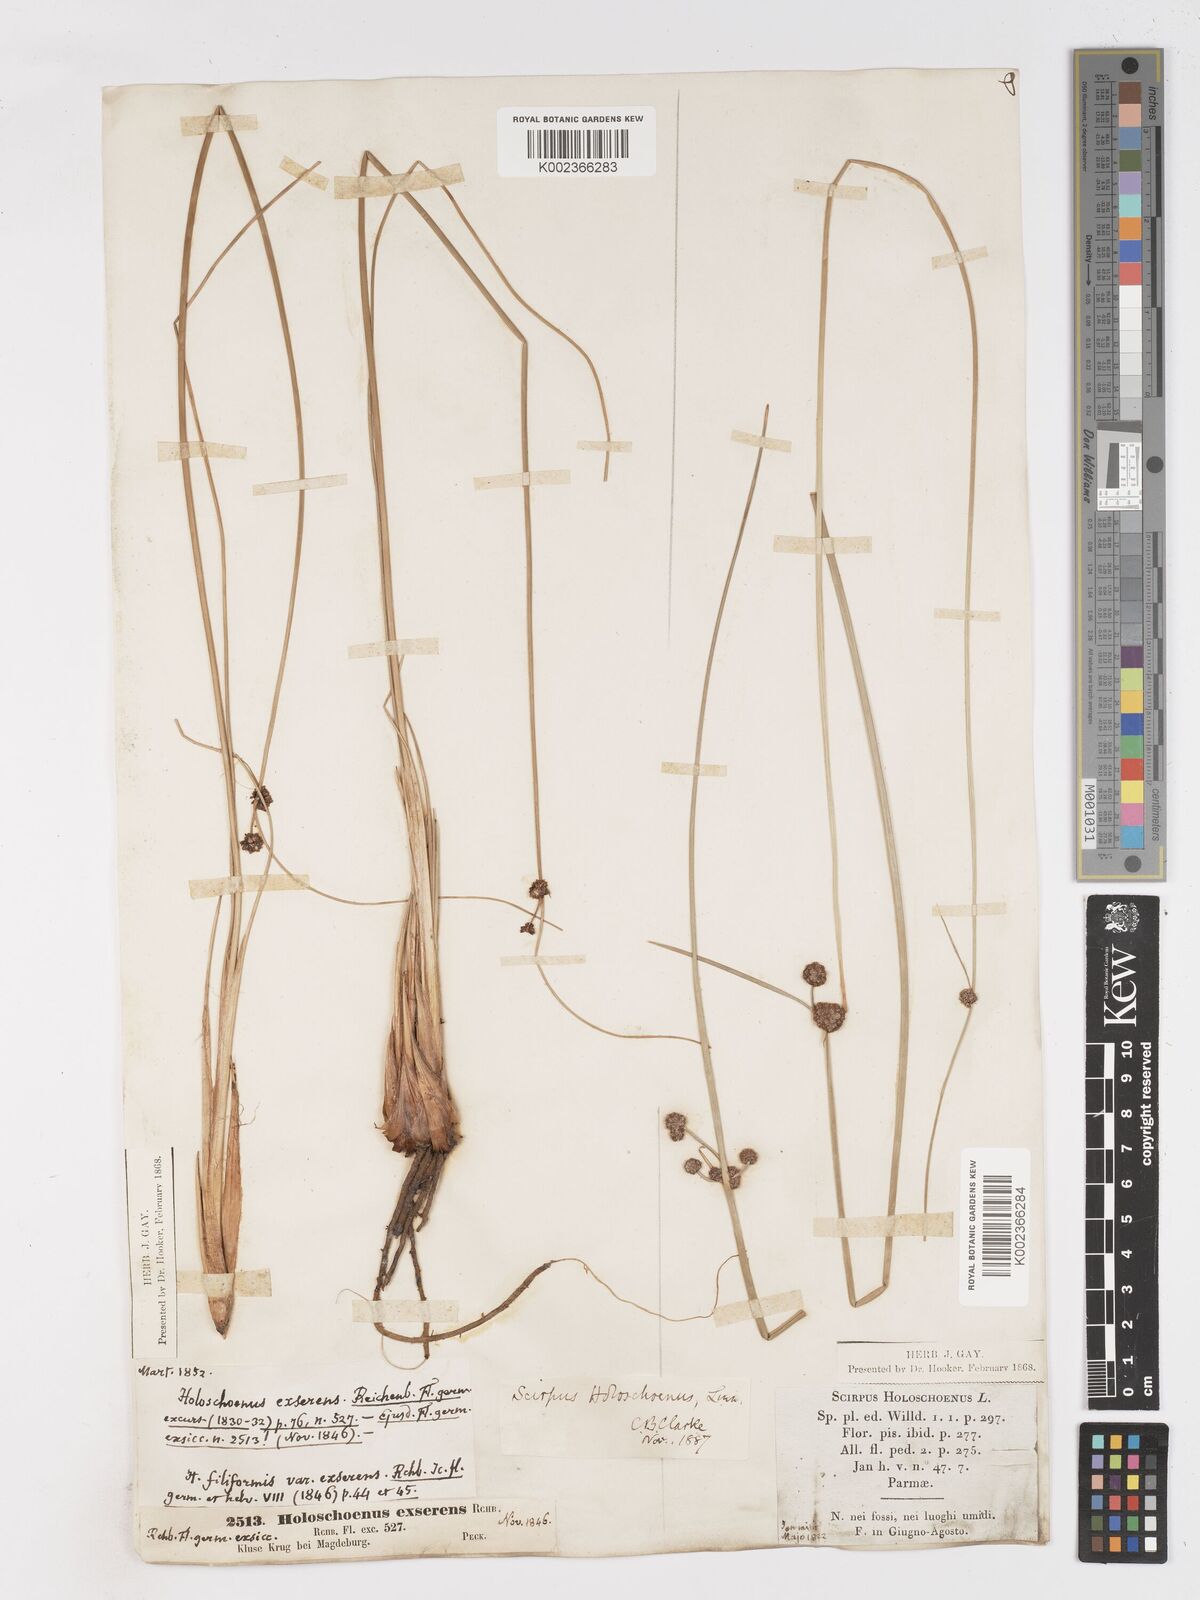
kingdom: Plantae
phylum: Tracheophyta
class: Liliopsida
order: Poales
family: Cyperaceae
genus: Scirpoides
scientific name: Scirpoides holoschoenus
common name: Round-headed club-rush
